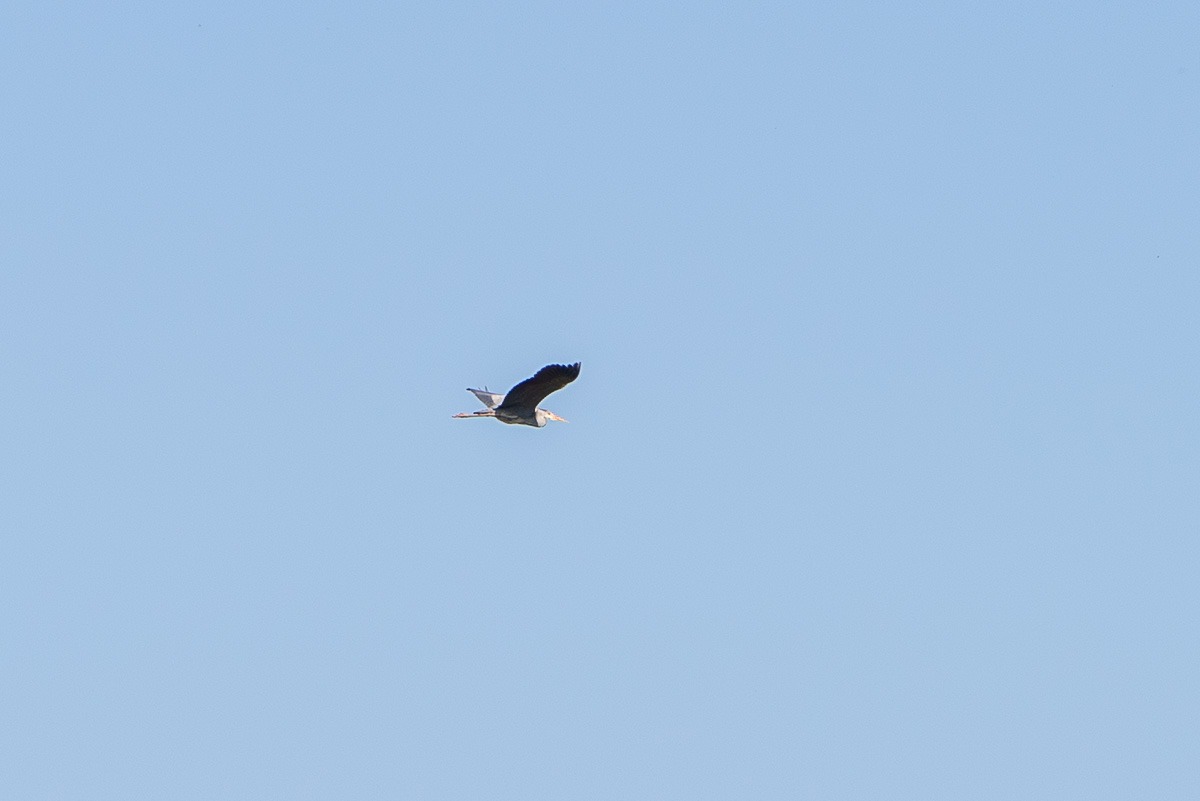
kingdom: Animalia
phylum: Chordata
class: Aves
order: Pelecaniformes
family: Ardeidae
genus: Ardea
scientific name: Ardea cinerea
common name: Fiskehejre
